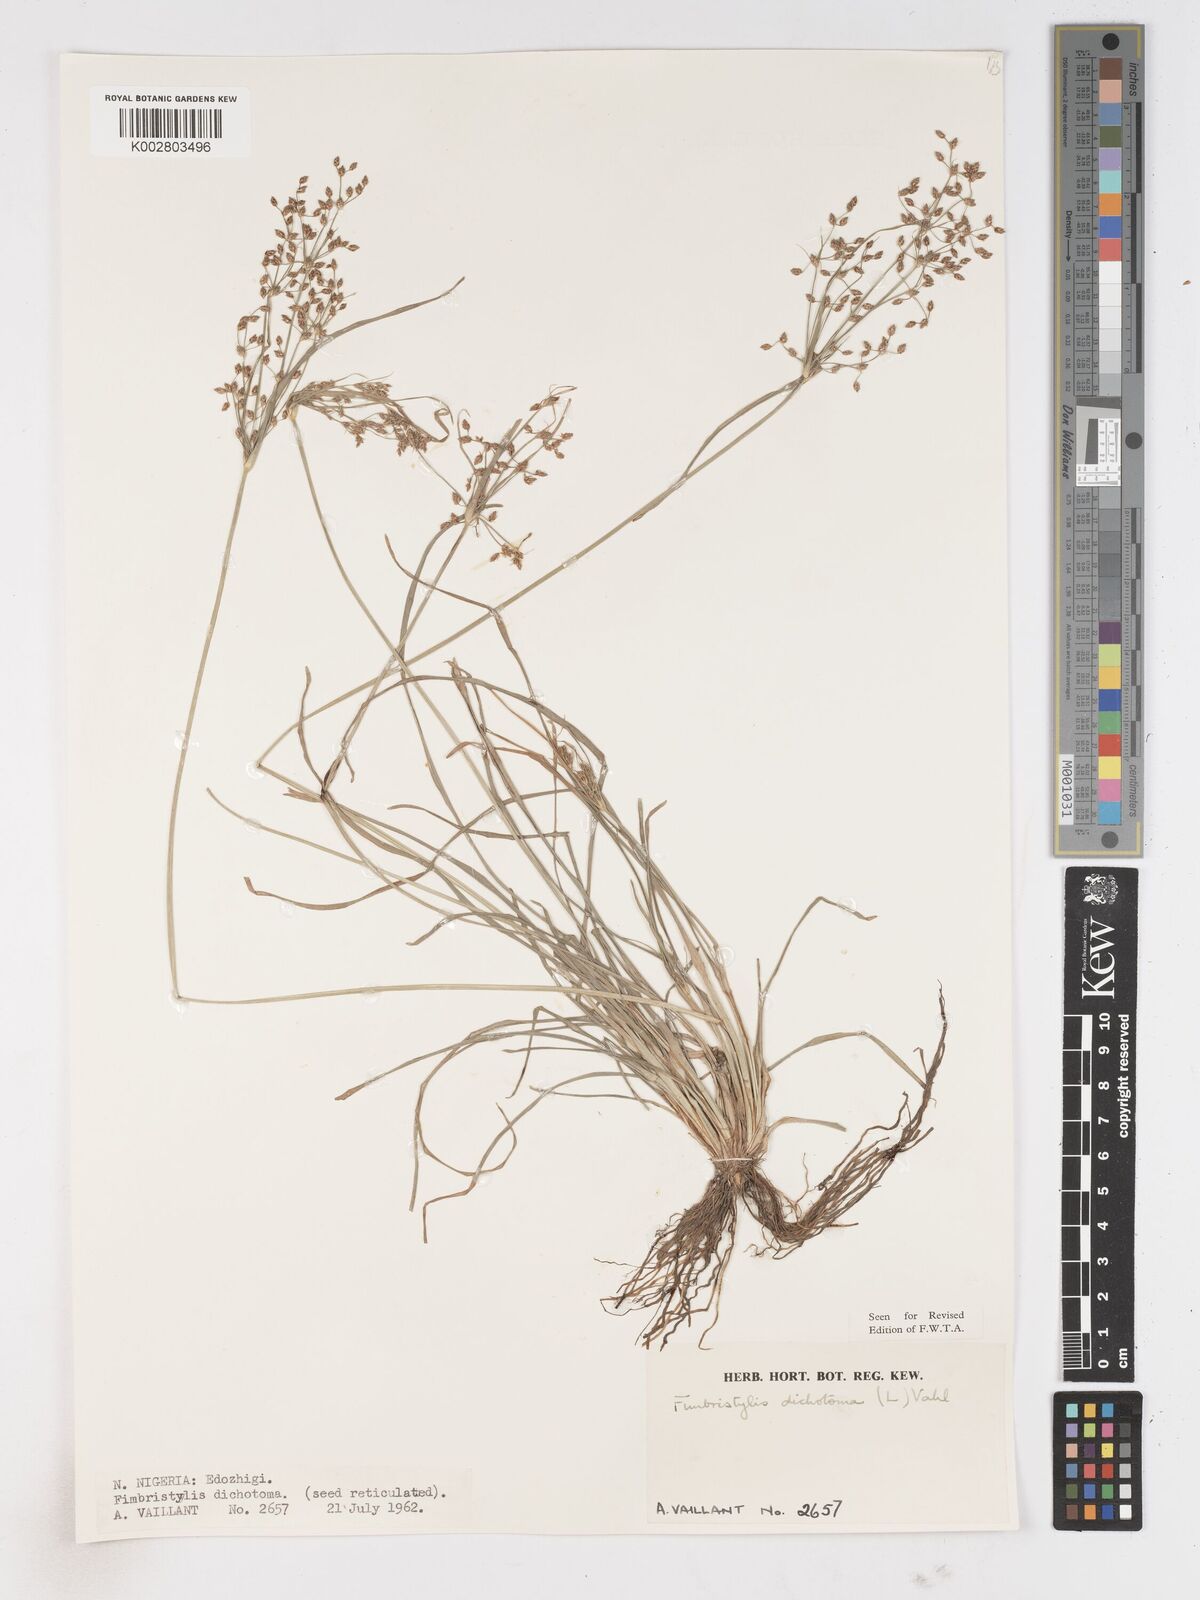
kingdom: Plantae
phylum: Tracheophyta
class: Liliopsida
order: Poales
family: Cyperaceae
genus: Fimbristylis
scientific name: Fimbristylis dichotoma
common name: Forked fimbry
